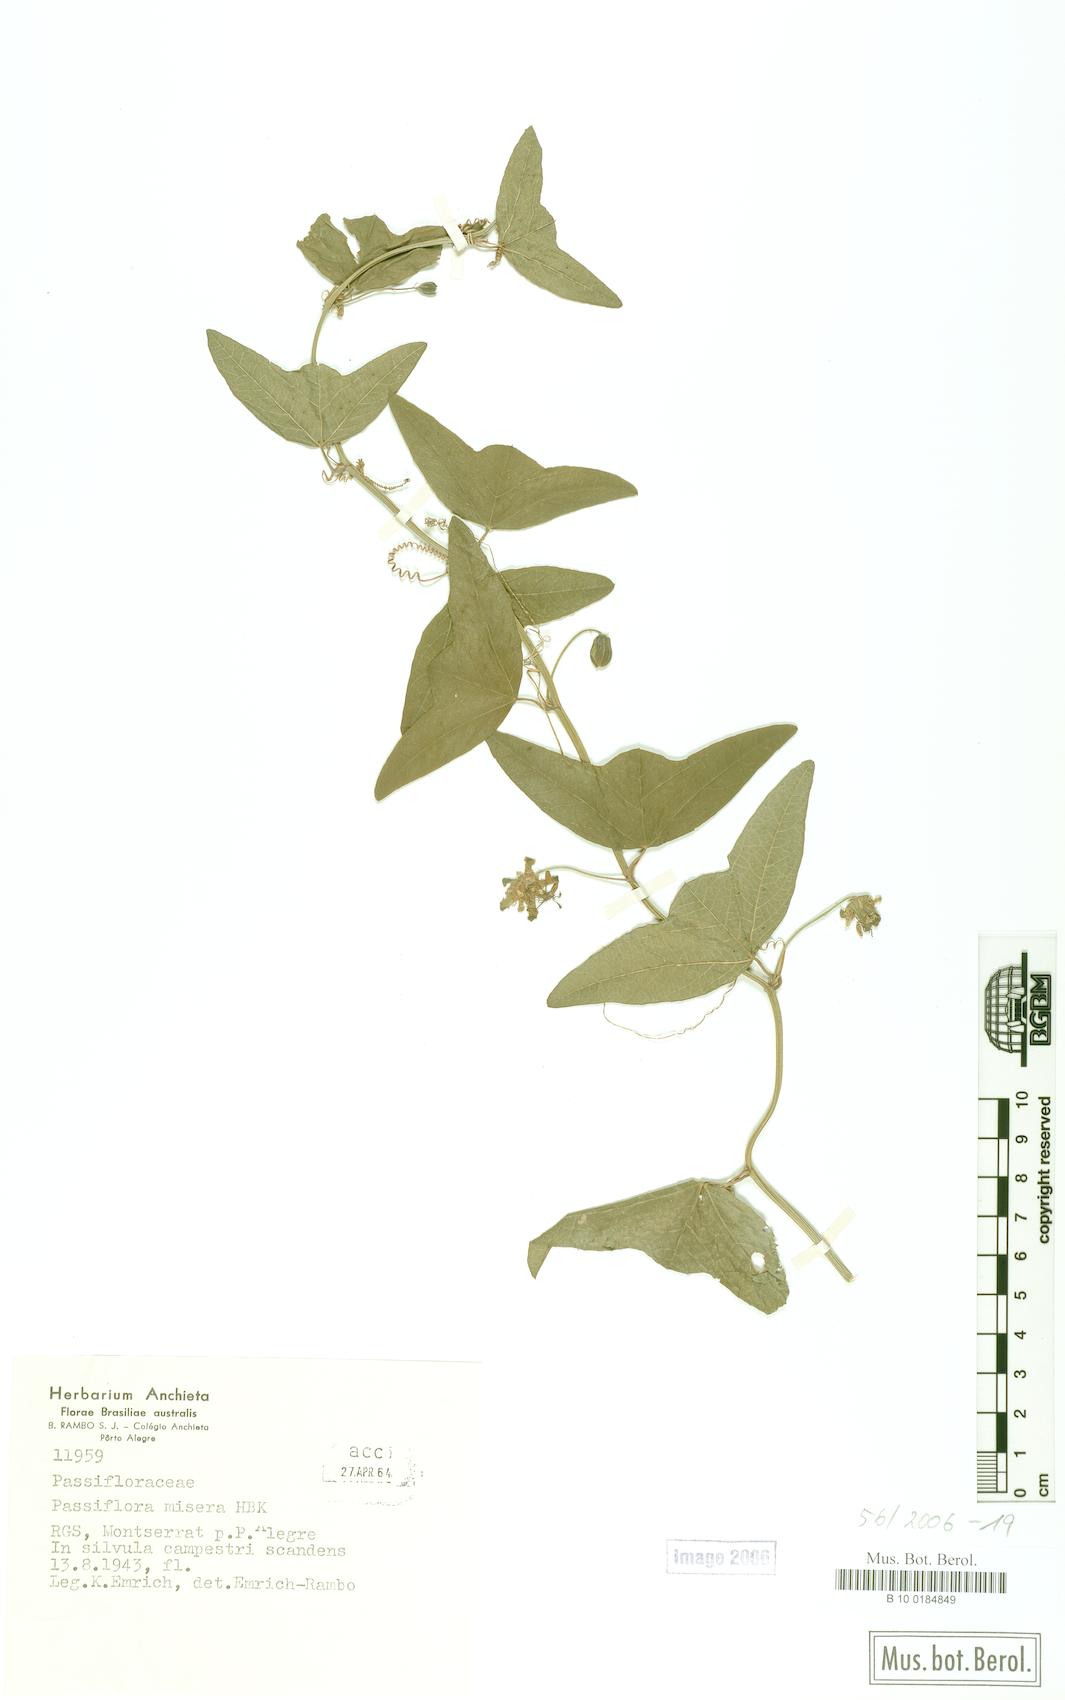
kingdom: Plantae
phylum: Tracheophyta
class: Magnoliopsida
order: Malpighiales
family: Passifloraceae
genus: Passiflora
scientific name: Passiflora transversalis
